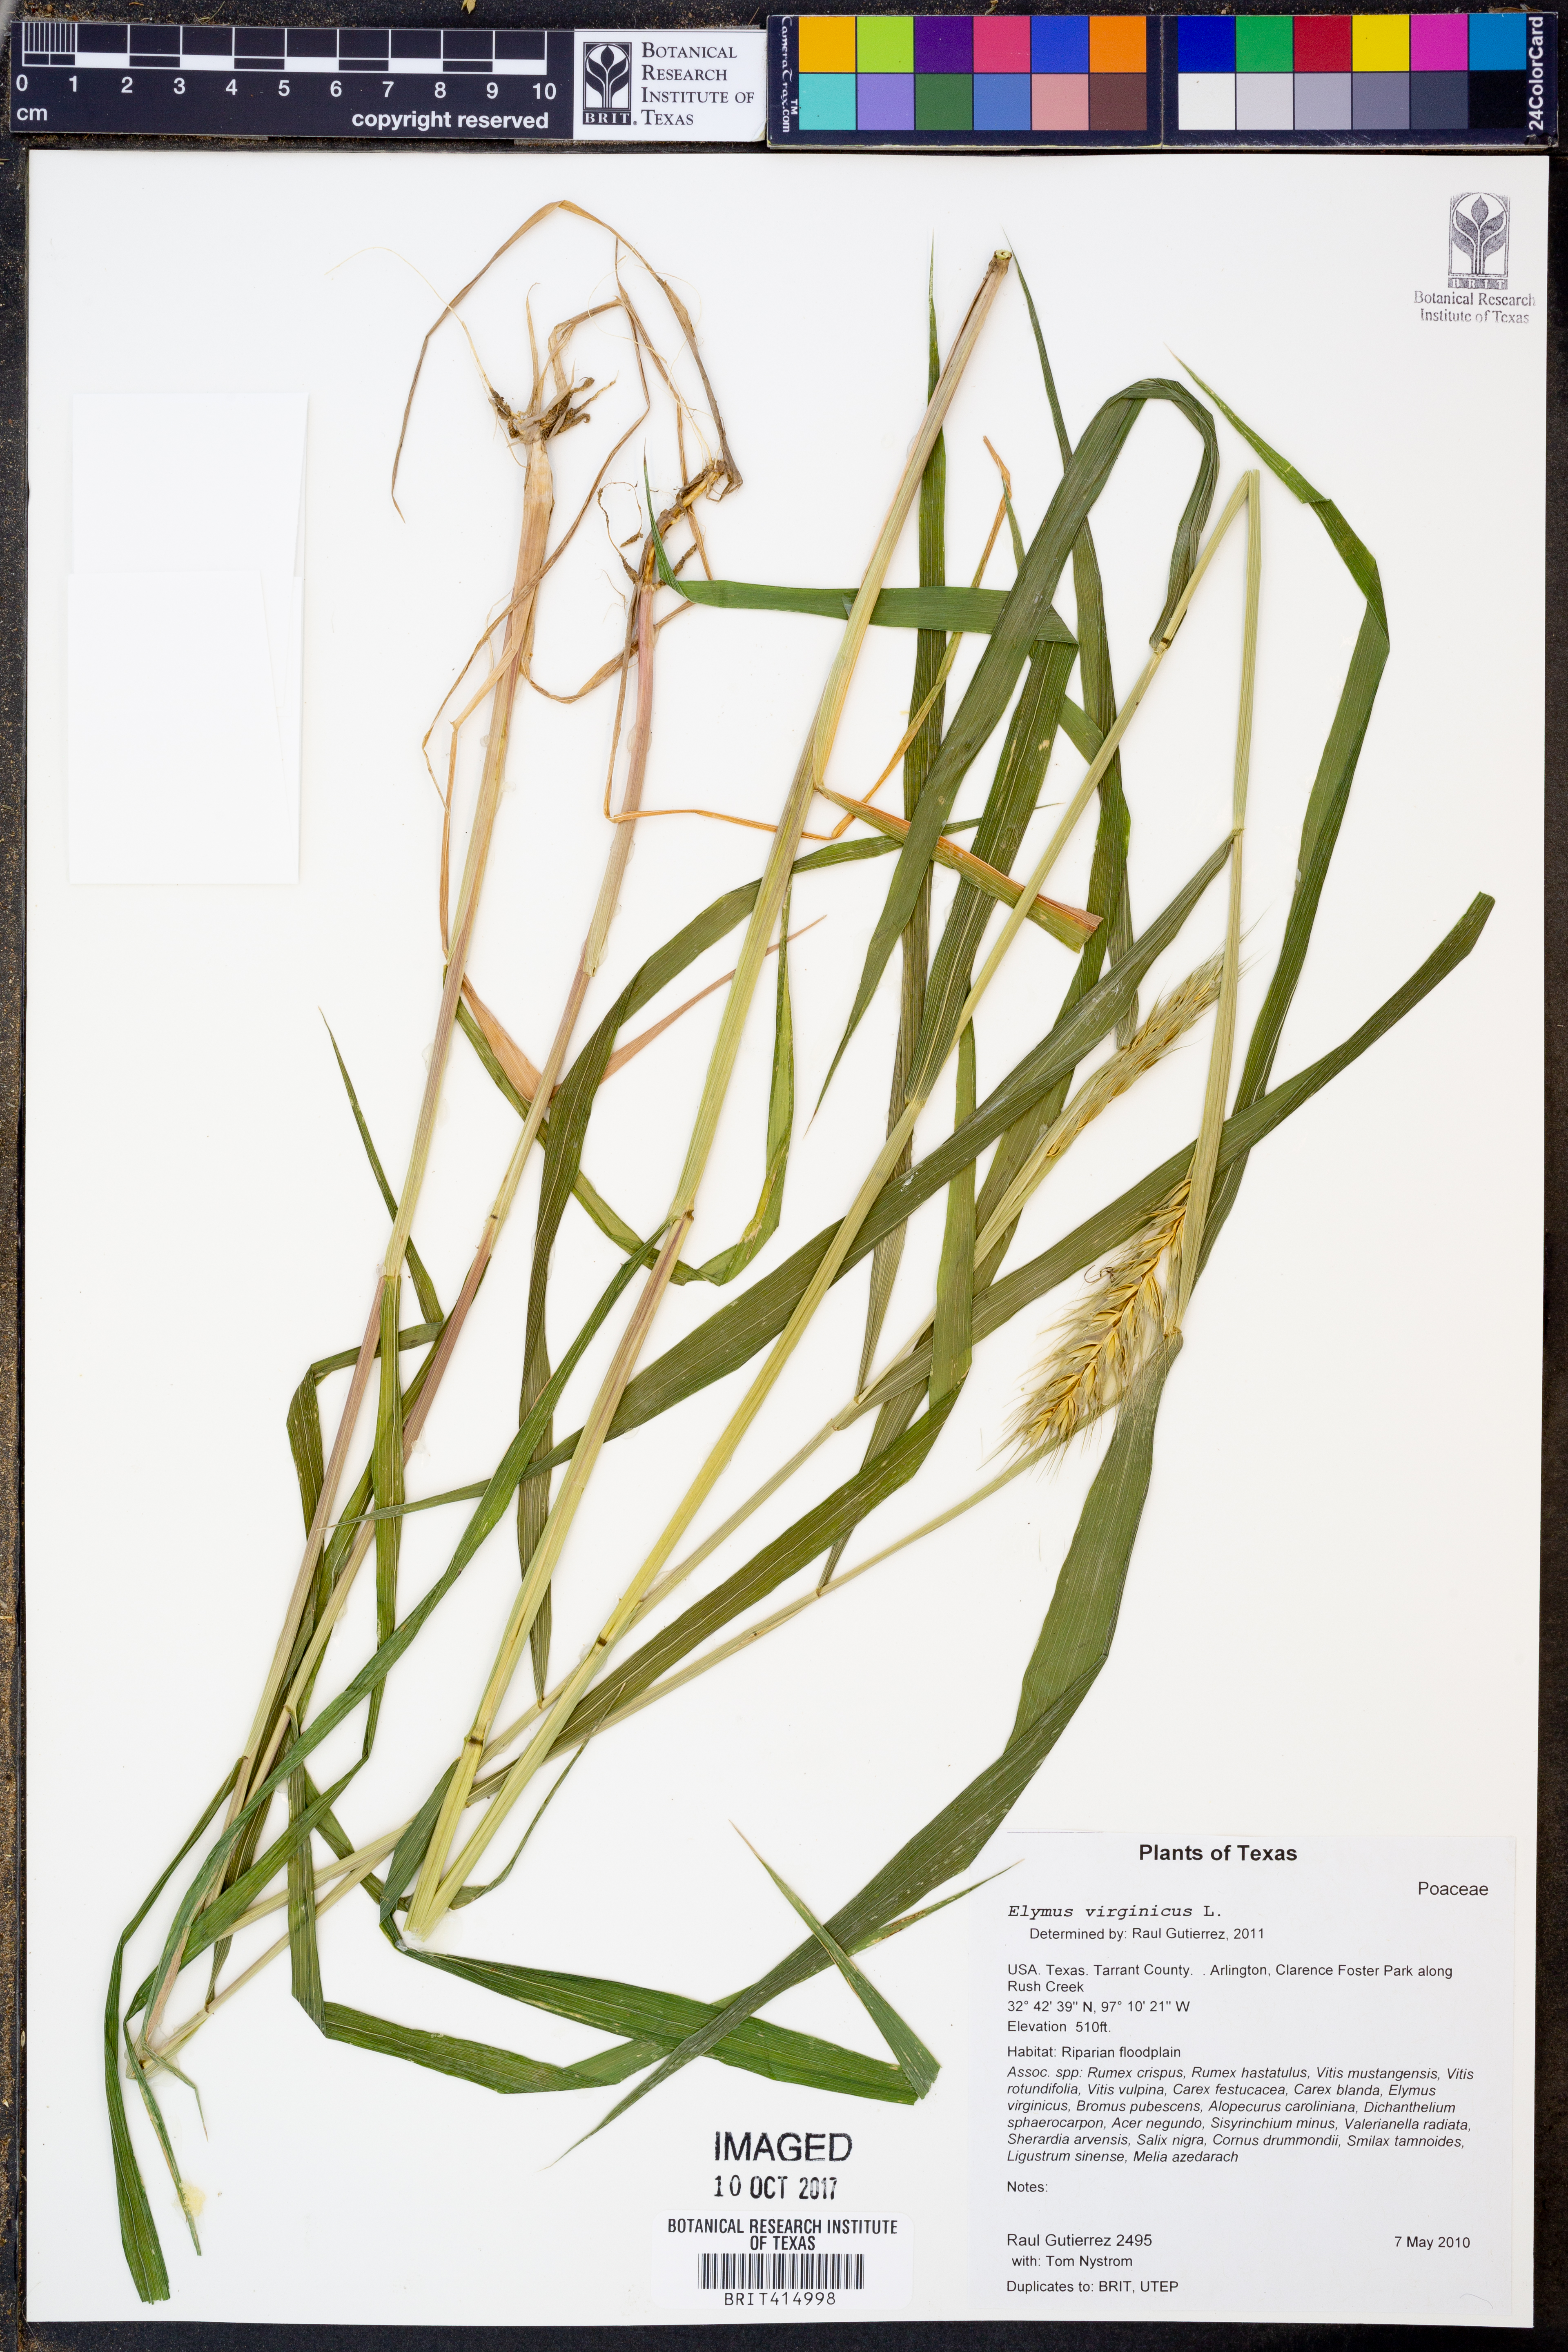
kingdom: Plantae
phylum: Tracheophyta
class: Liliopsida
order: Poales
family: Poaceae
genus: Elymus
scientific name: Elymus virginicus
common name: Common eastern wildrye
